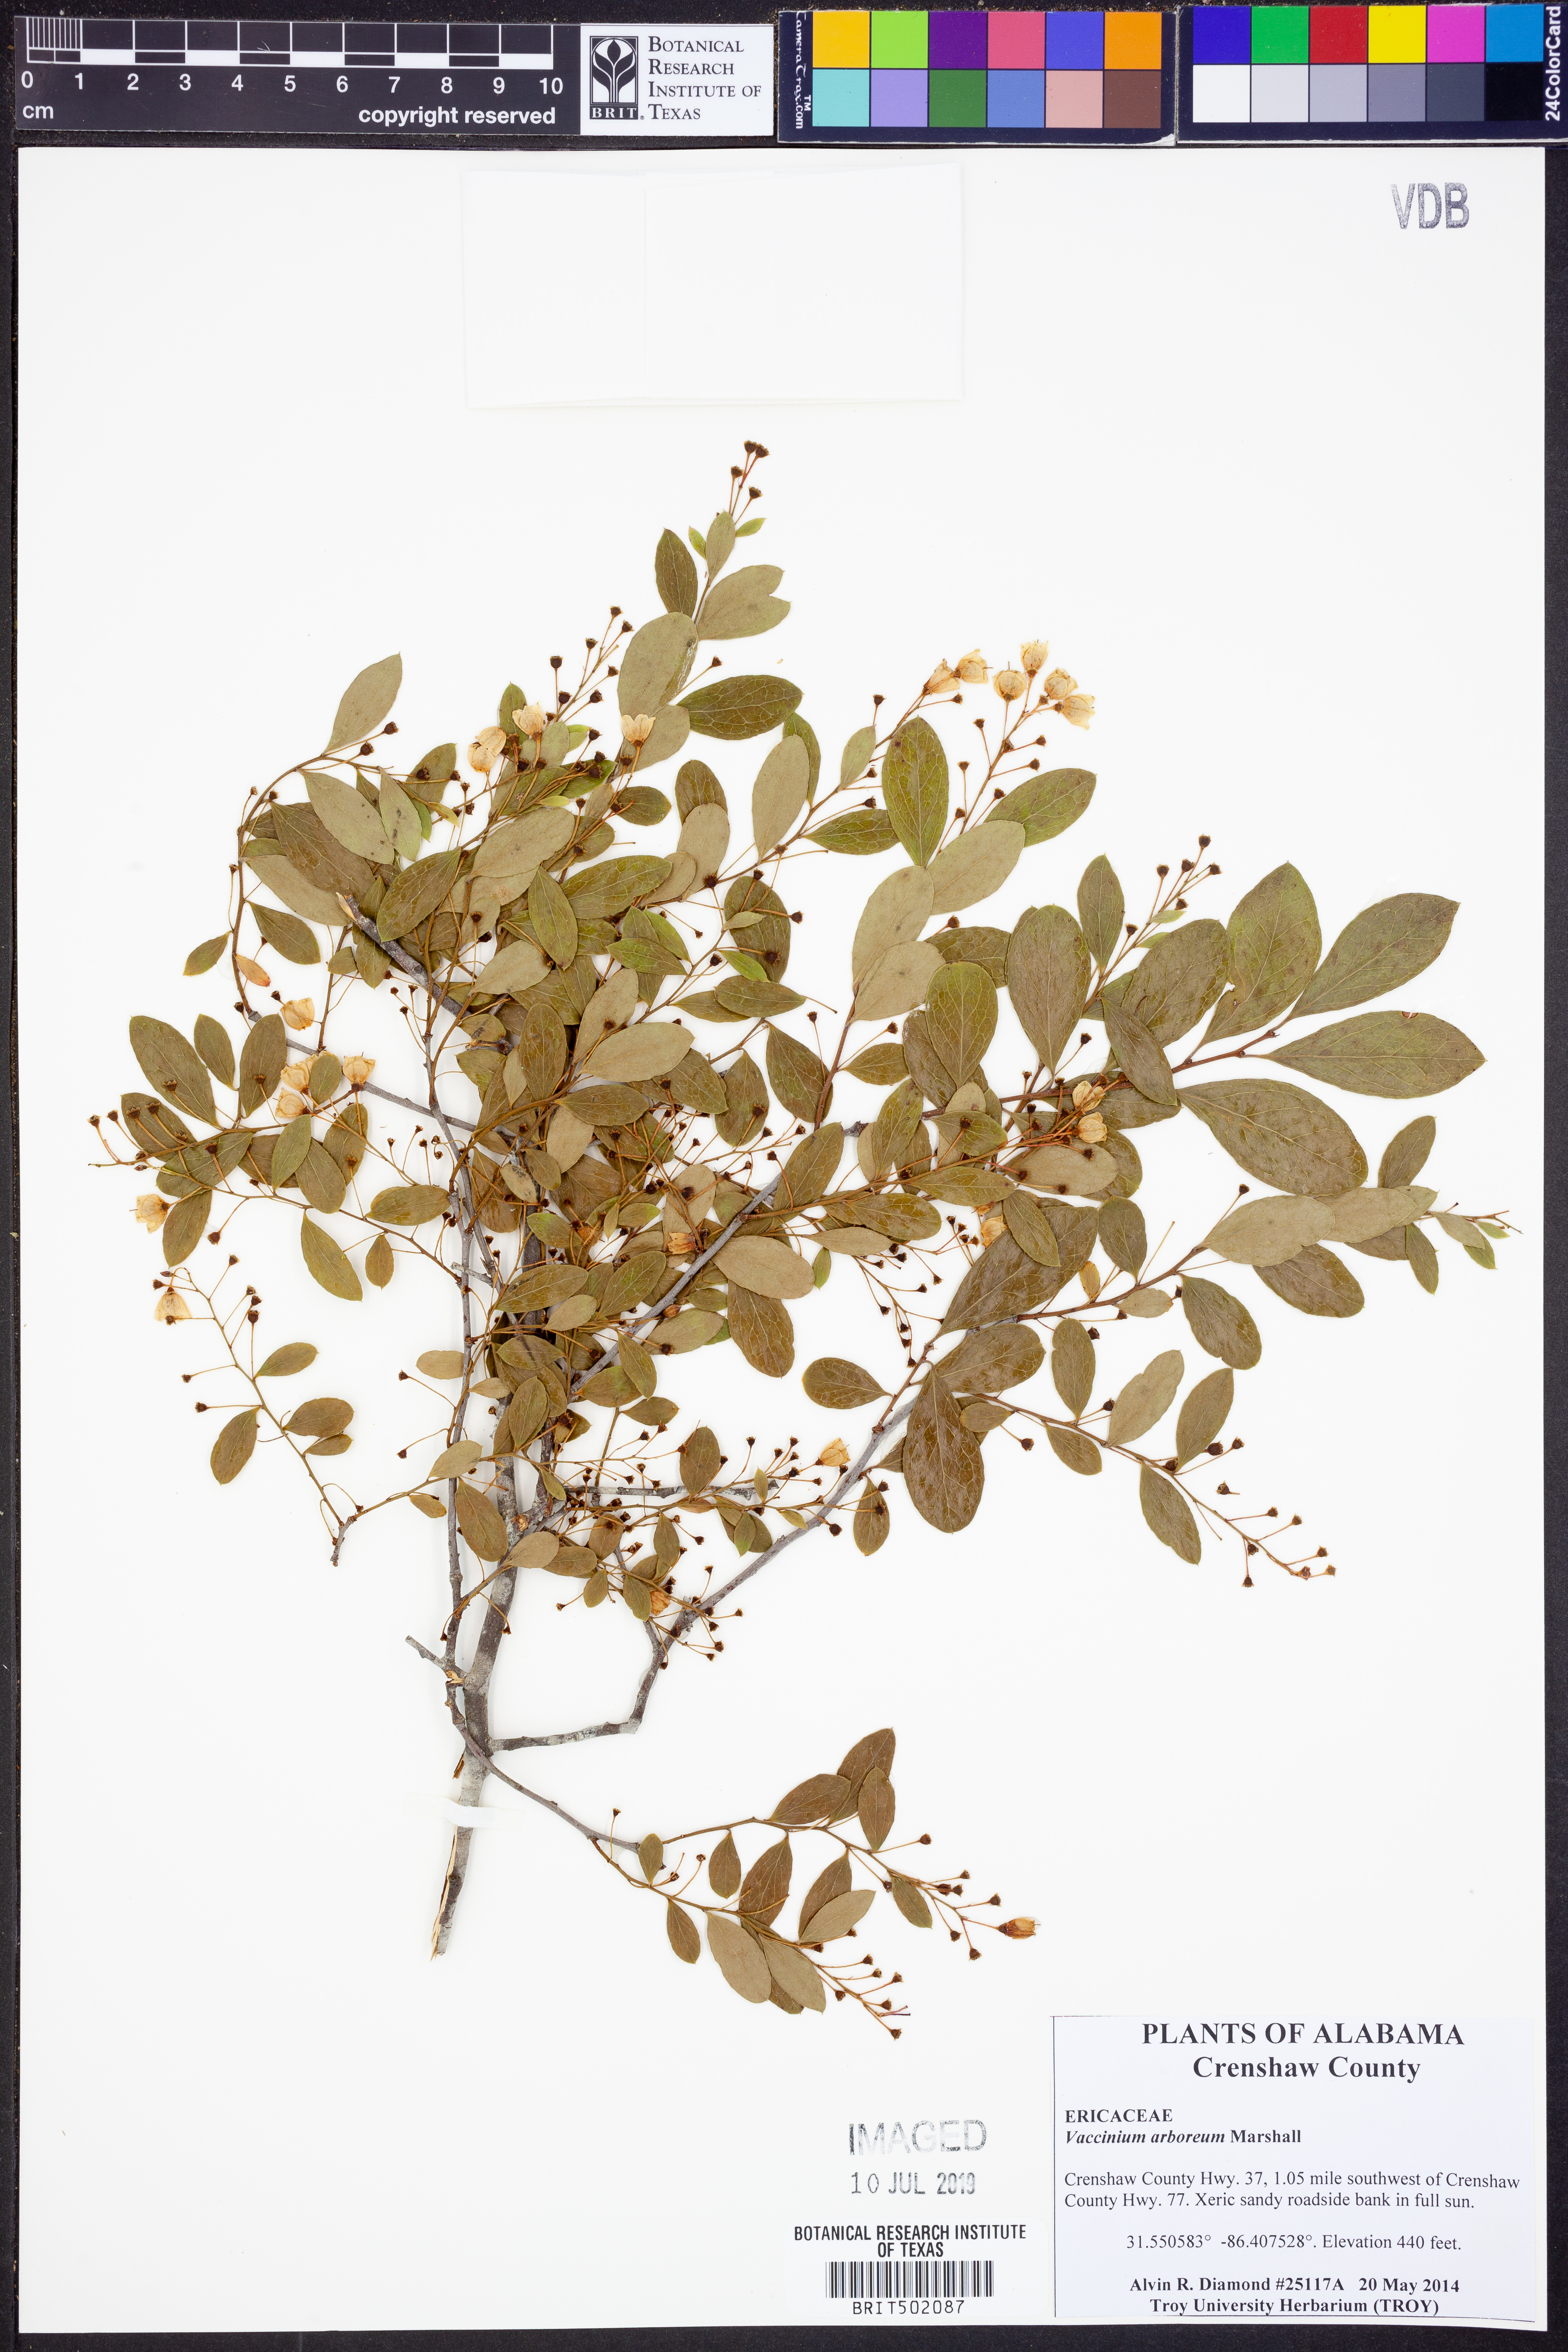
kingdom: Plantae
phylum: Tracheophyta
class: Magnoliopsida
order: Ericales
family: Ericaceae
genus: Vaccinium
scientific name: Vaccinium arboreum
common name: Farkleberry
